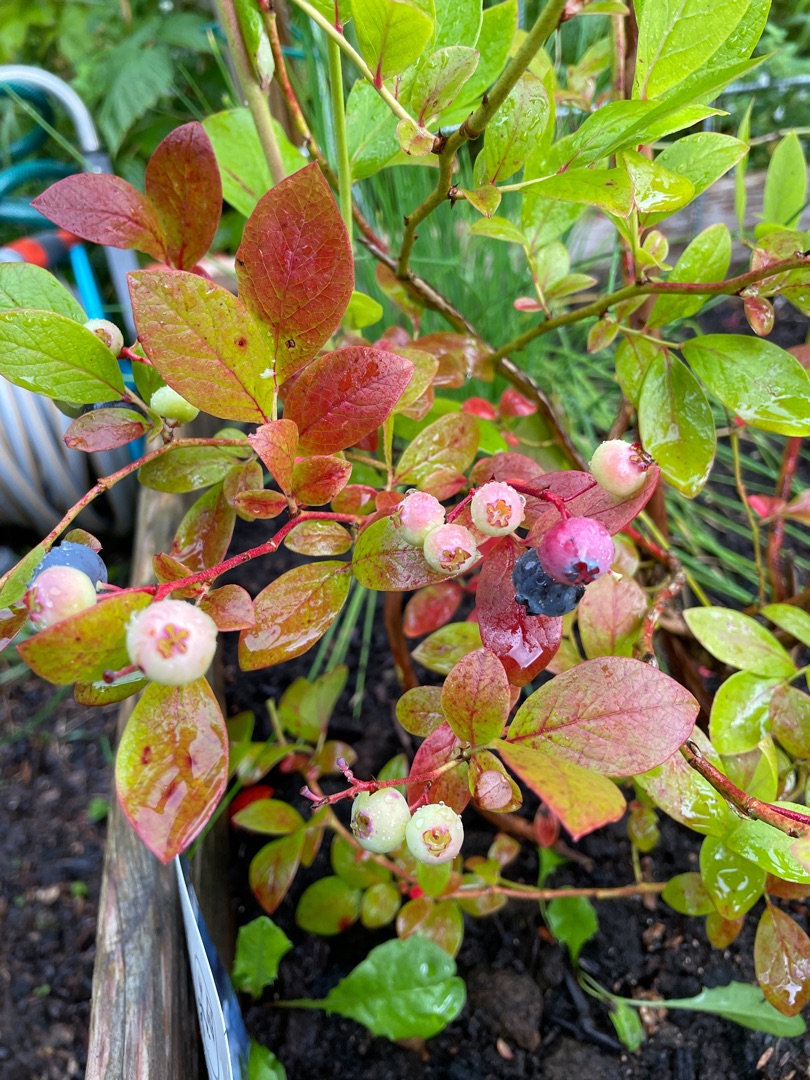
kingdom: Plantae
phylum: Tracheophyta
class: Magnoliopsida
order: Ericales
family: Ericaceae
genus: Vaccinium
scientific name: Vaccinium corymbosum
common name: Amerikansk blåbær
